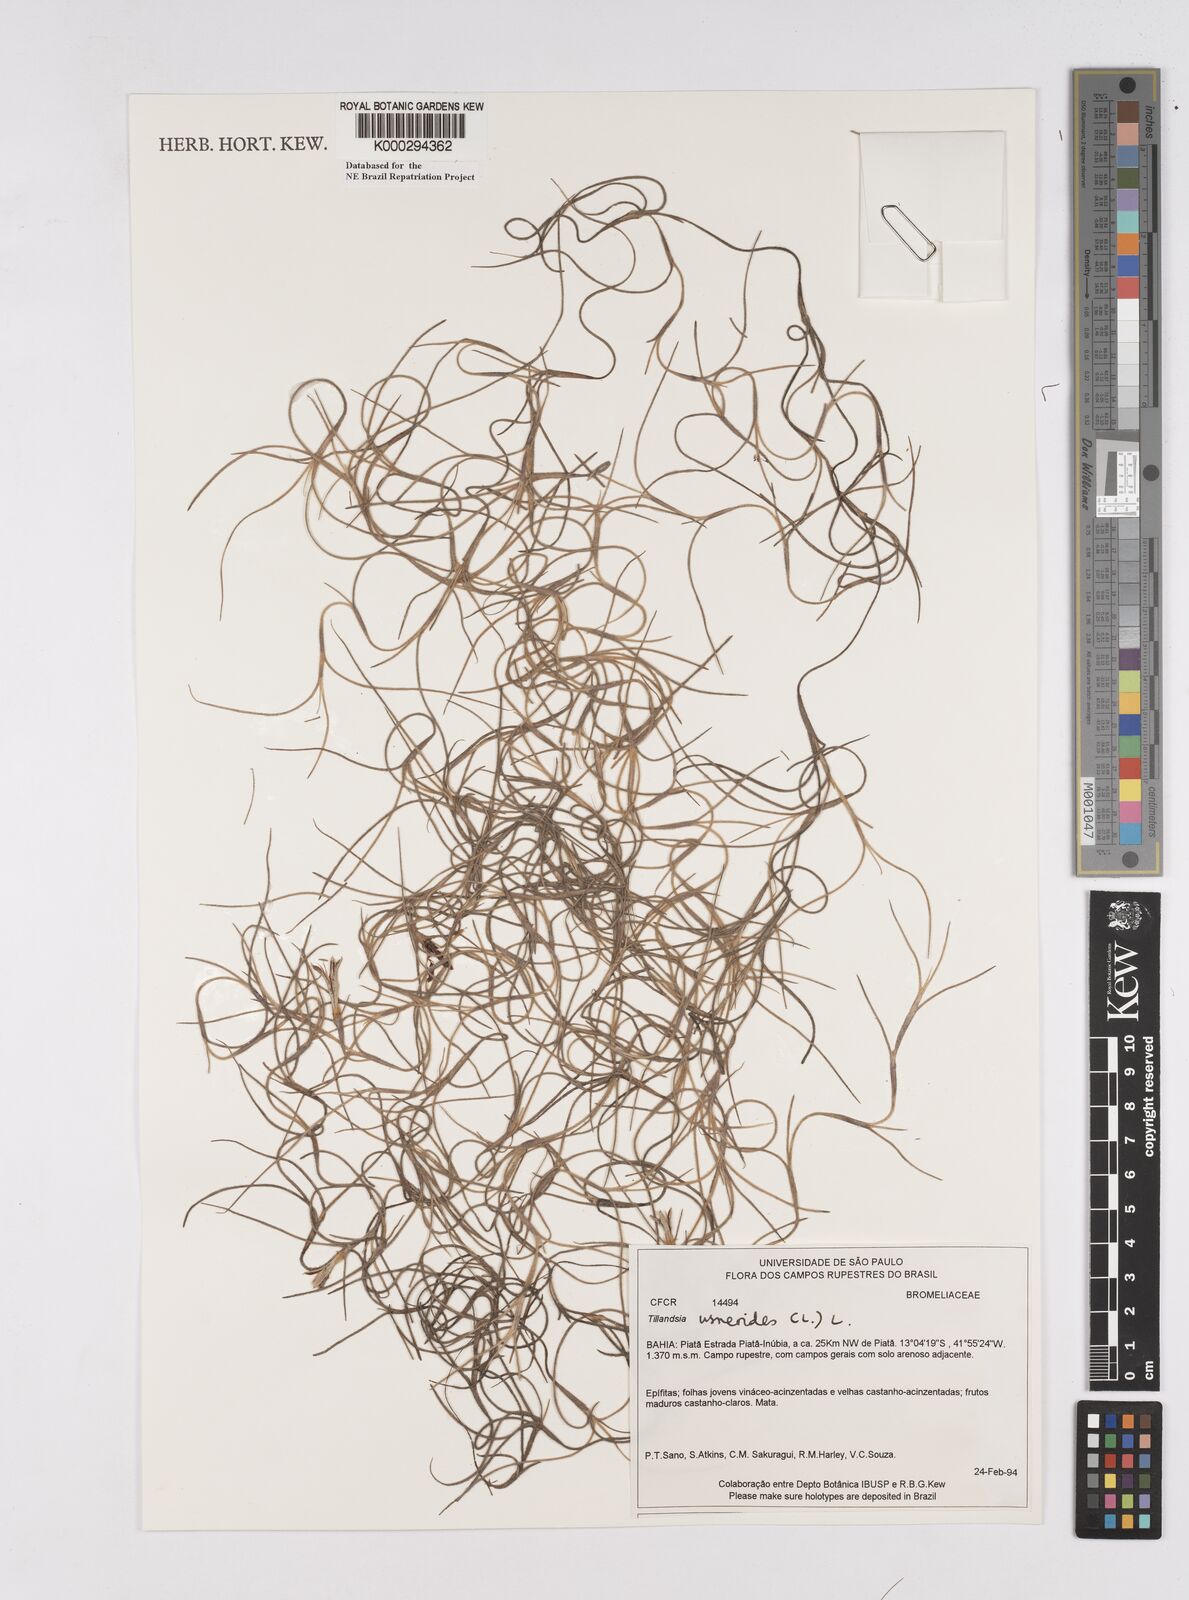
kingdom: Plantae
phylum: Tracheophyta
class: Liliopsida
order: Poales
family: Bromeliaceae
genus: Tillandsia
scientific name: Tillandsia usneoides
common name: Spanish moss
